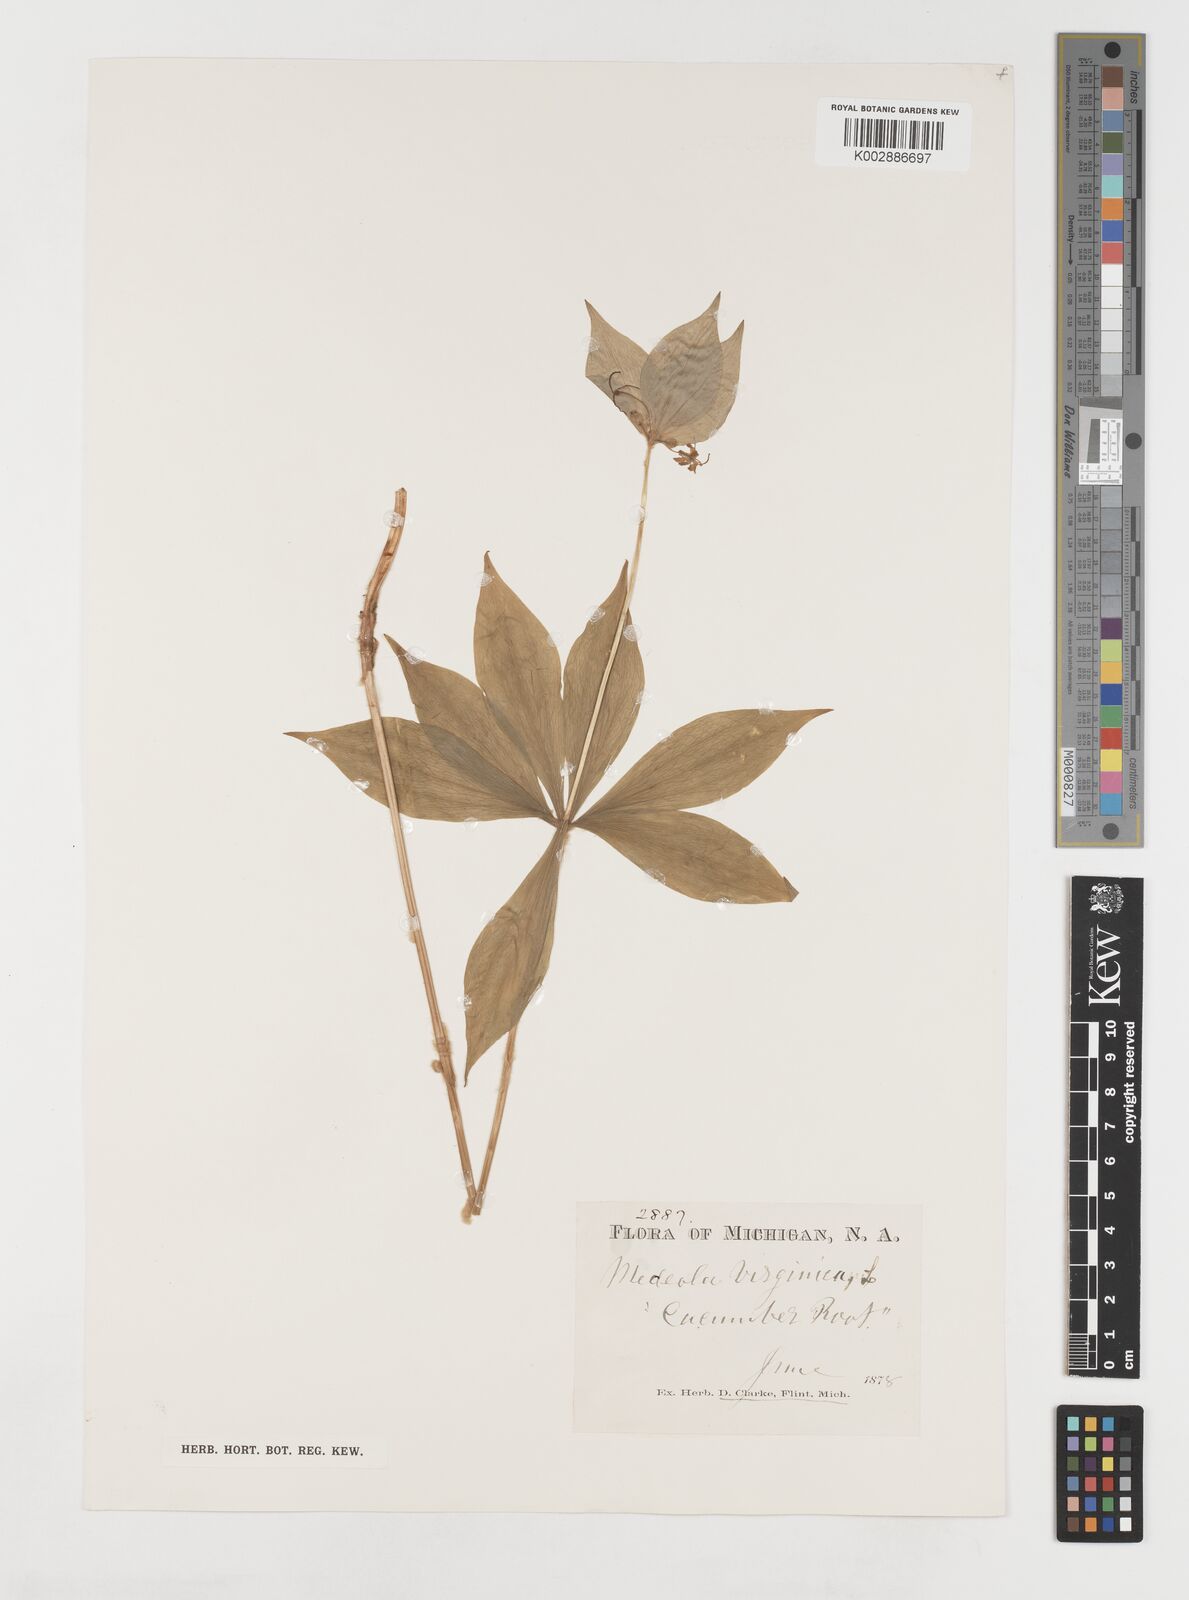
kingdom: Plantae
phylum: Tracheophyta
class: Liliopsida
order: Liliales
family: Liliaceae
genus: Medeola
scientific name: Medeola virginiana
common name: Indian cucumber-root
